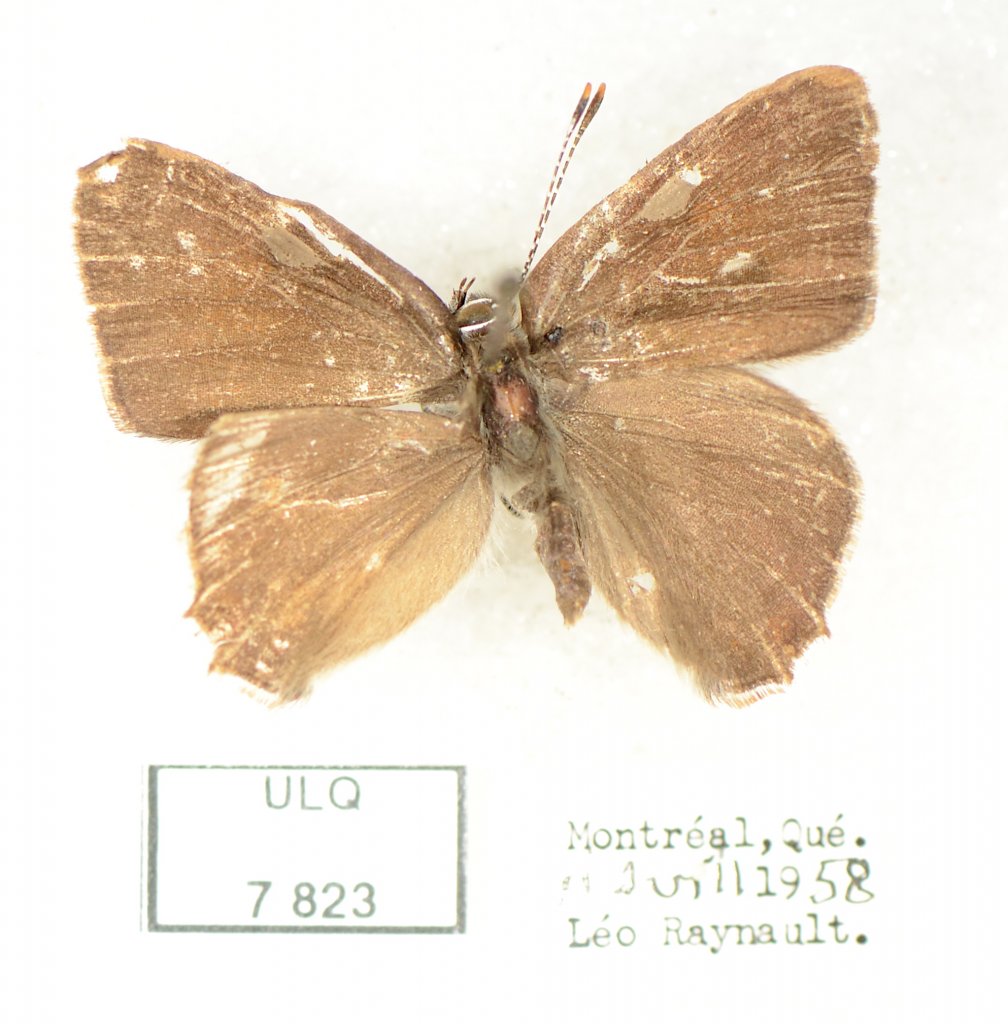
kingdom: Animalia
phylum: Arthropoda
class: Insecta
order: Lepidoptera
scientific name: Lepidoptera
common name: Butterflies
